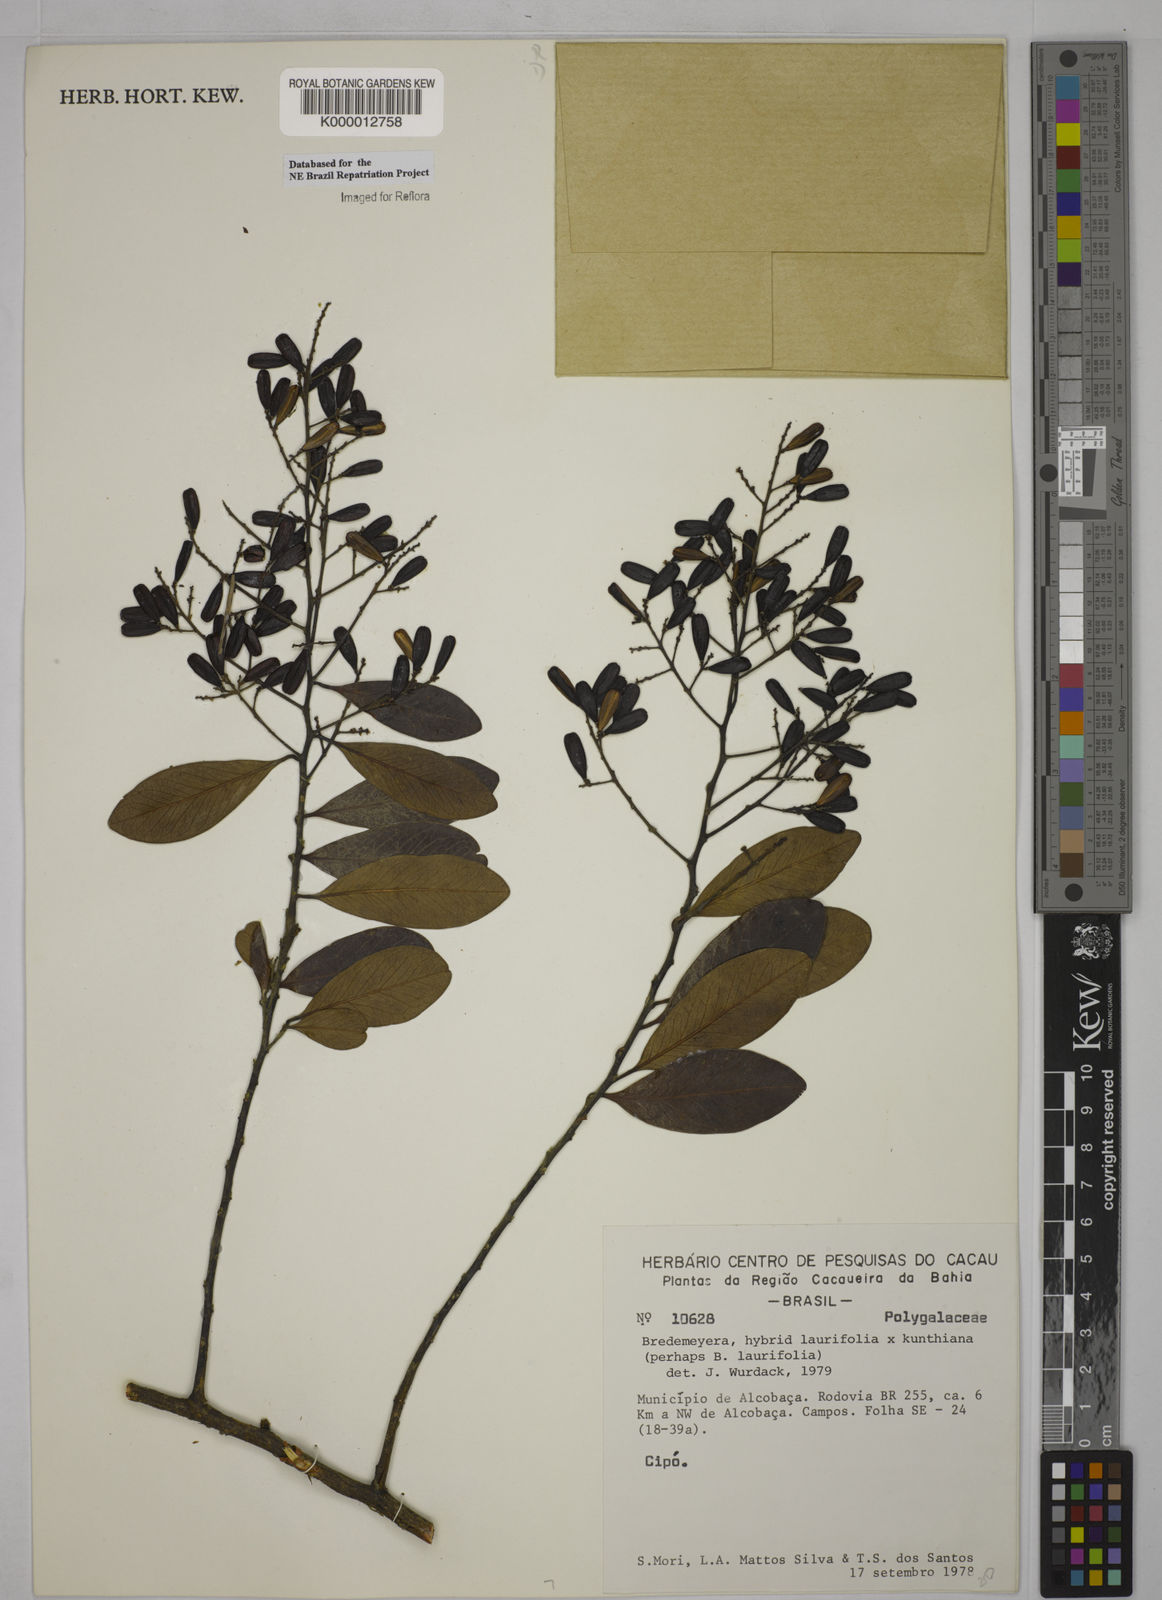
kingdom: Plantae
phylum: Tracheophyta
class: Magnoliopsida
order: Fabales
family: Polygalaceae
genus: Bredemeyera
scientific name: Bredemeyera laurifolia
